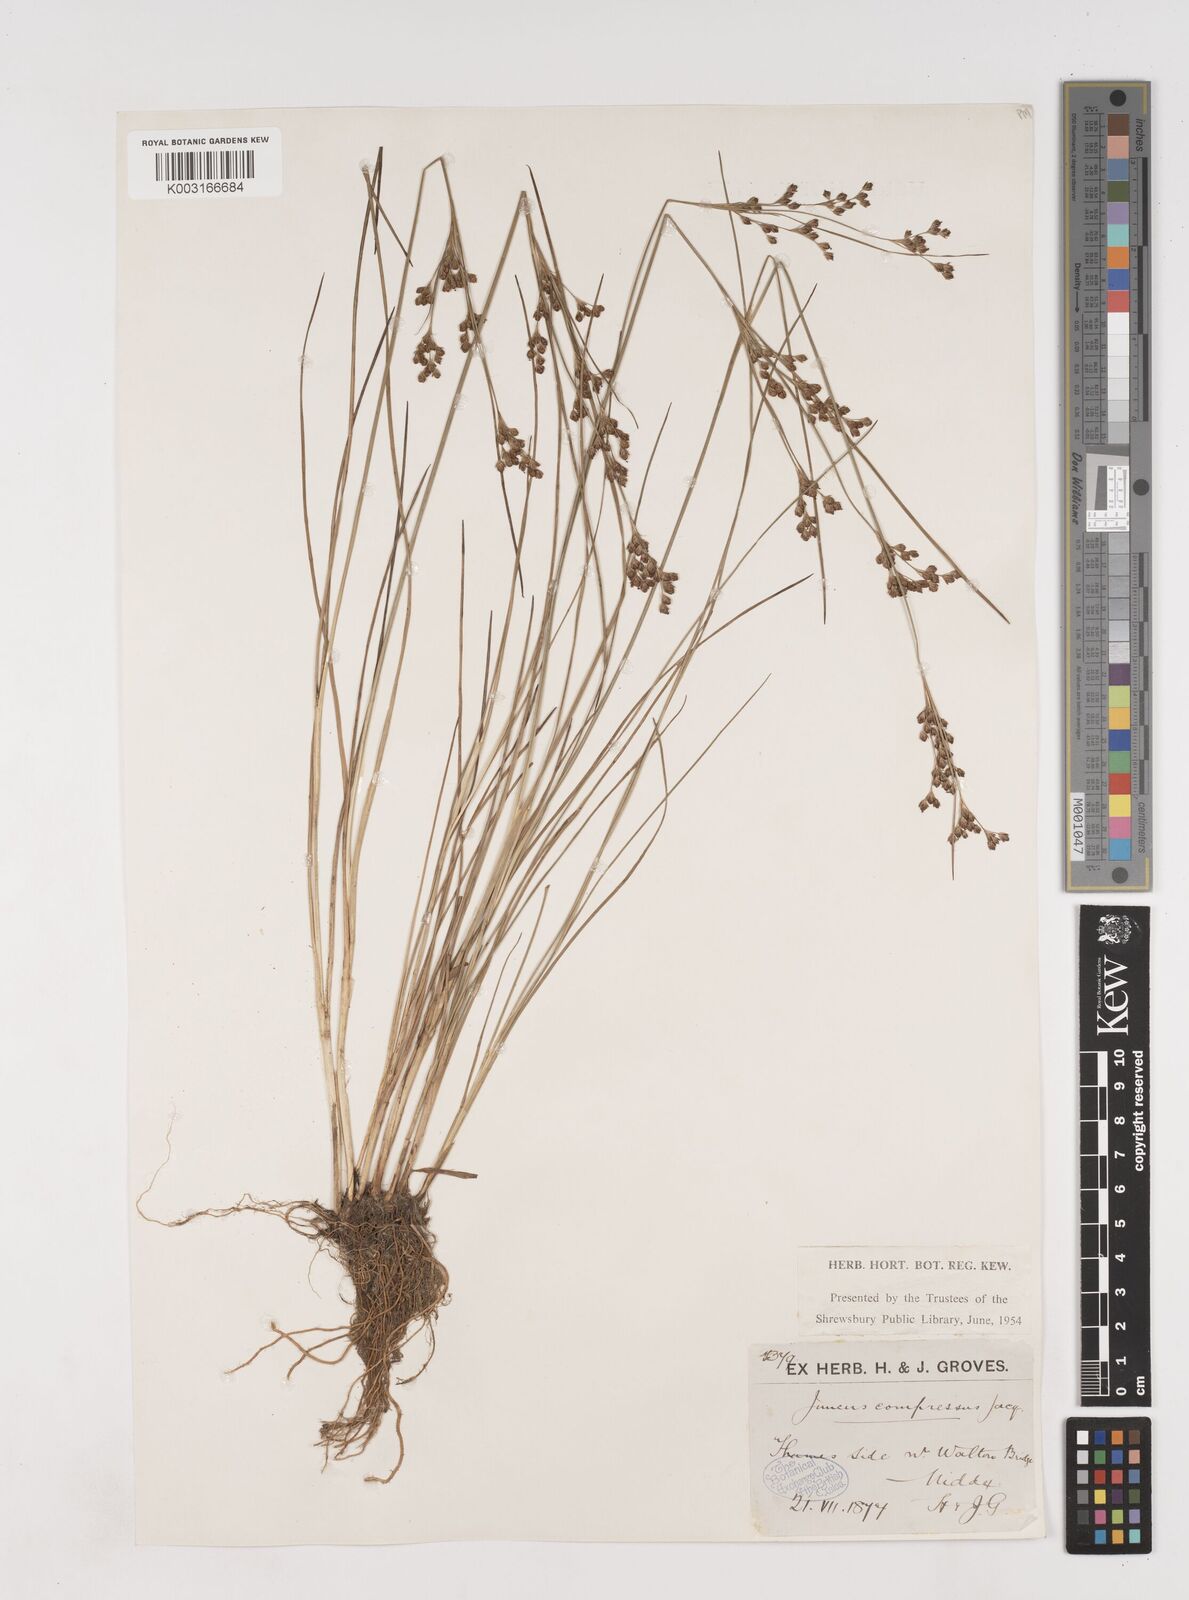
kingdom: Plantae
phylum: Tracheophyta
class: Liliopsida
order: Poales
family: Juncaceae
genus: Juncus
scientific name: Juncus compressus
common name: Round-fruited rush
